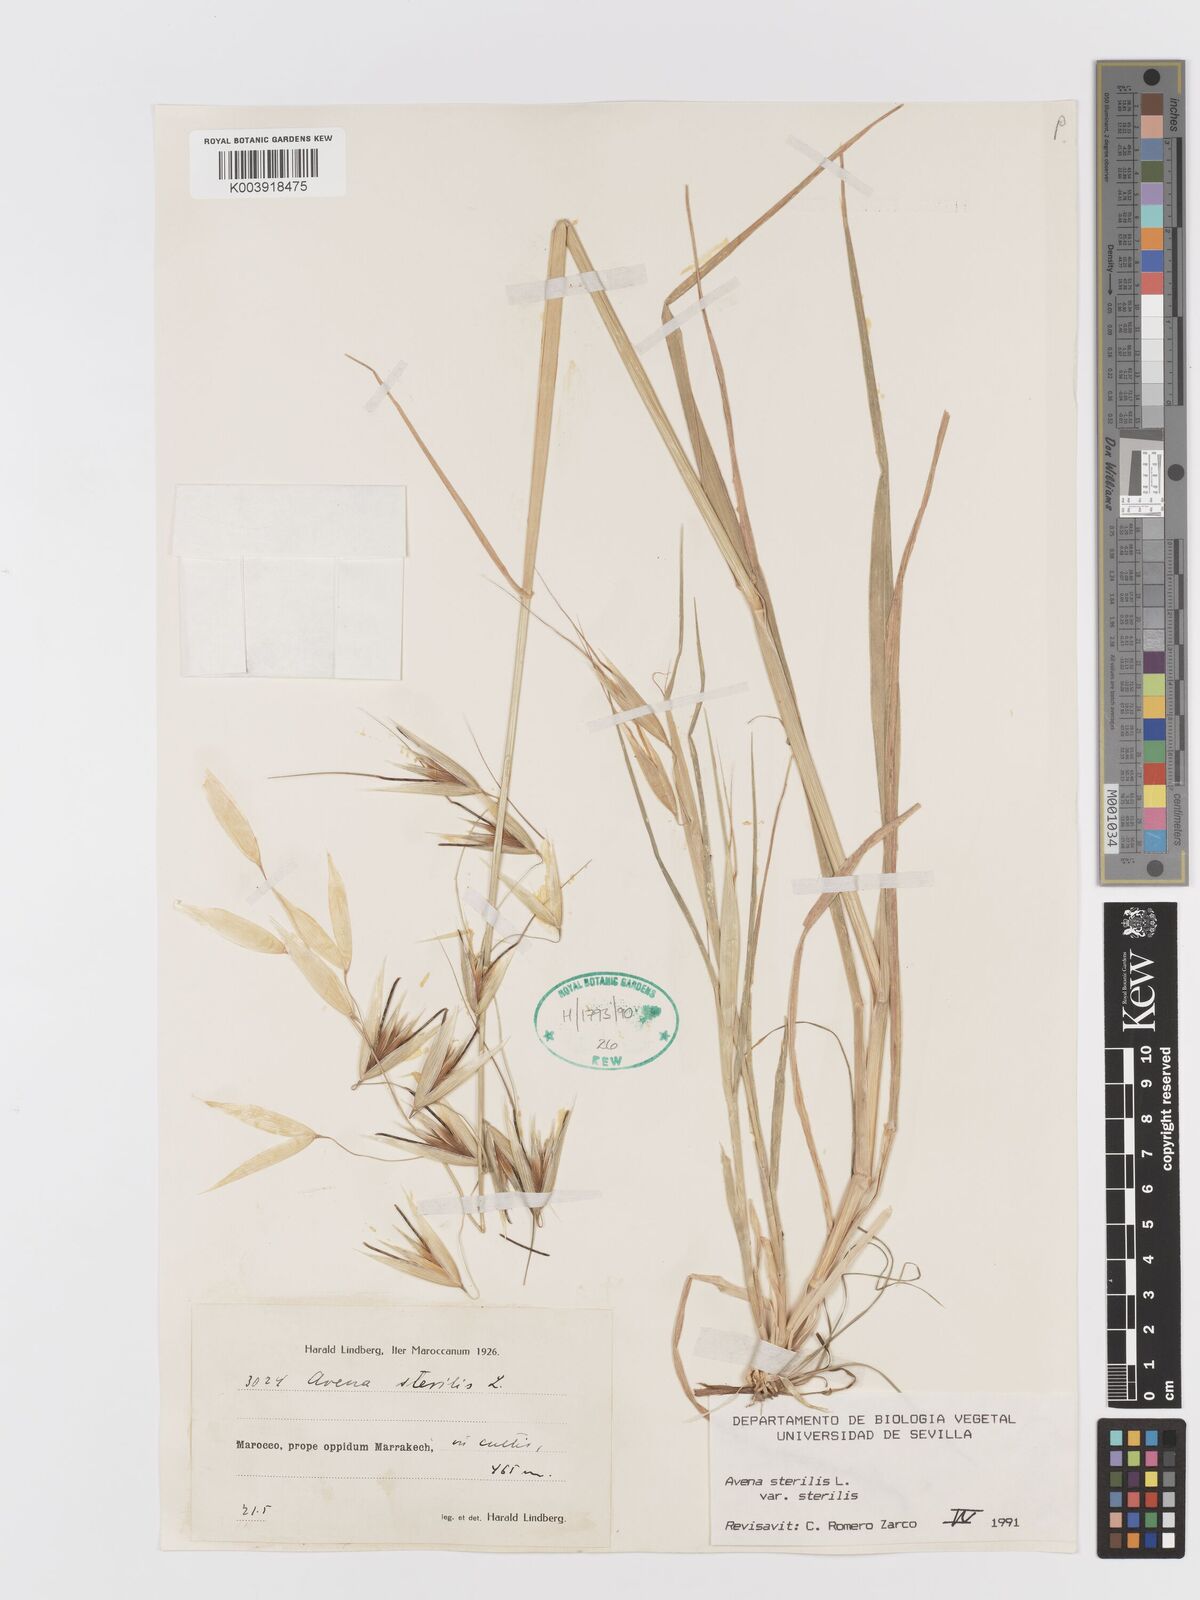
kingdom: Plantae
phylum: Tracheophyta
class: Liliopsida
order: Poales
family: Poaceae
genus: Avena
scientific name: Avena sterilis
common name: Animated oat
